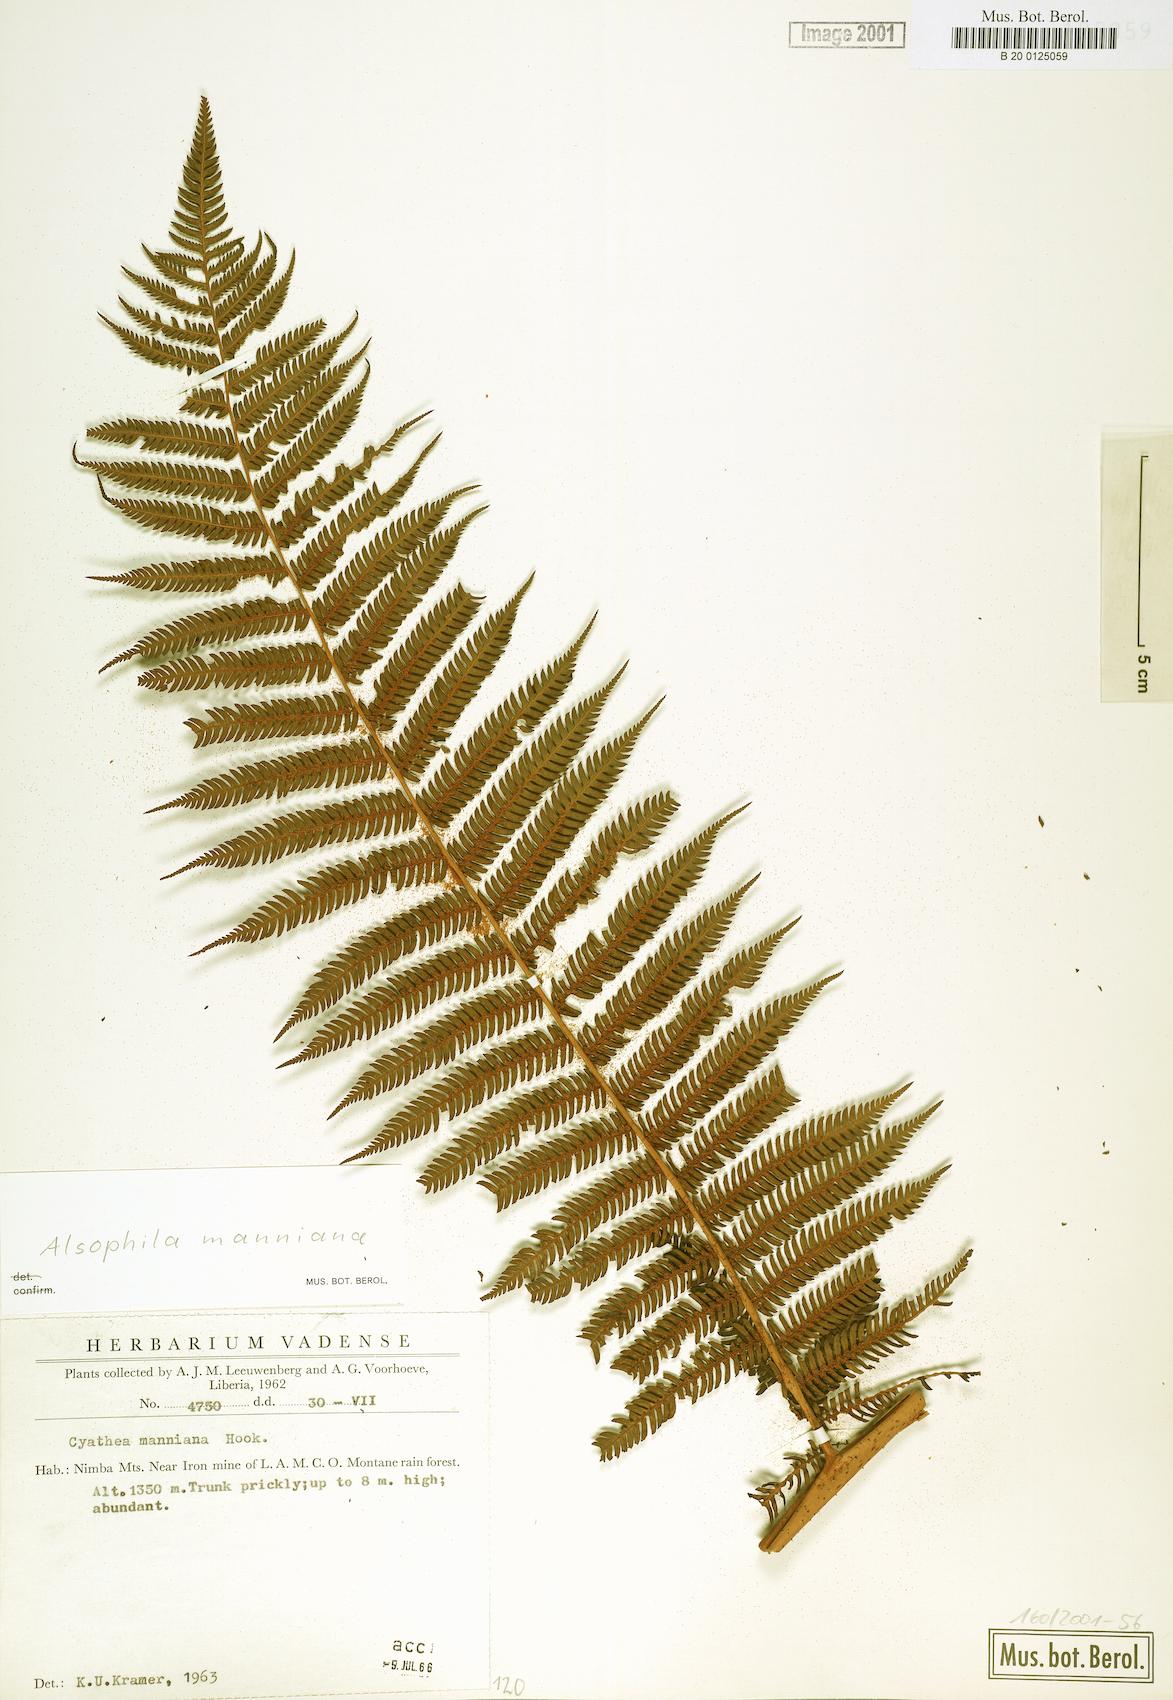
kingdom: Plantae
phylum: Tracheophyta
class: Polypodiopsida
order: Cyatheales
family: Cyatheaceae
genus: Alsophila
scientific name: Alsophila manniana
